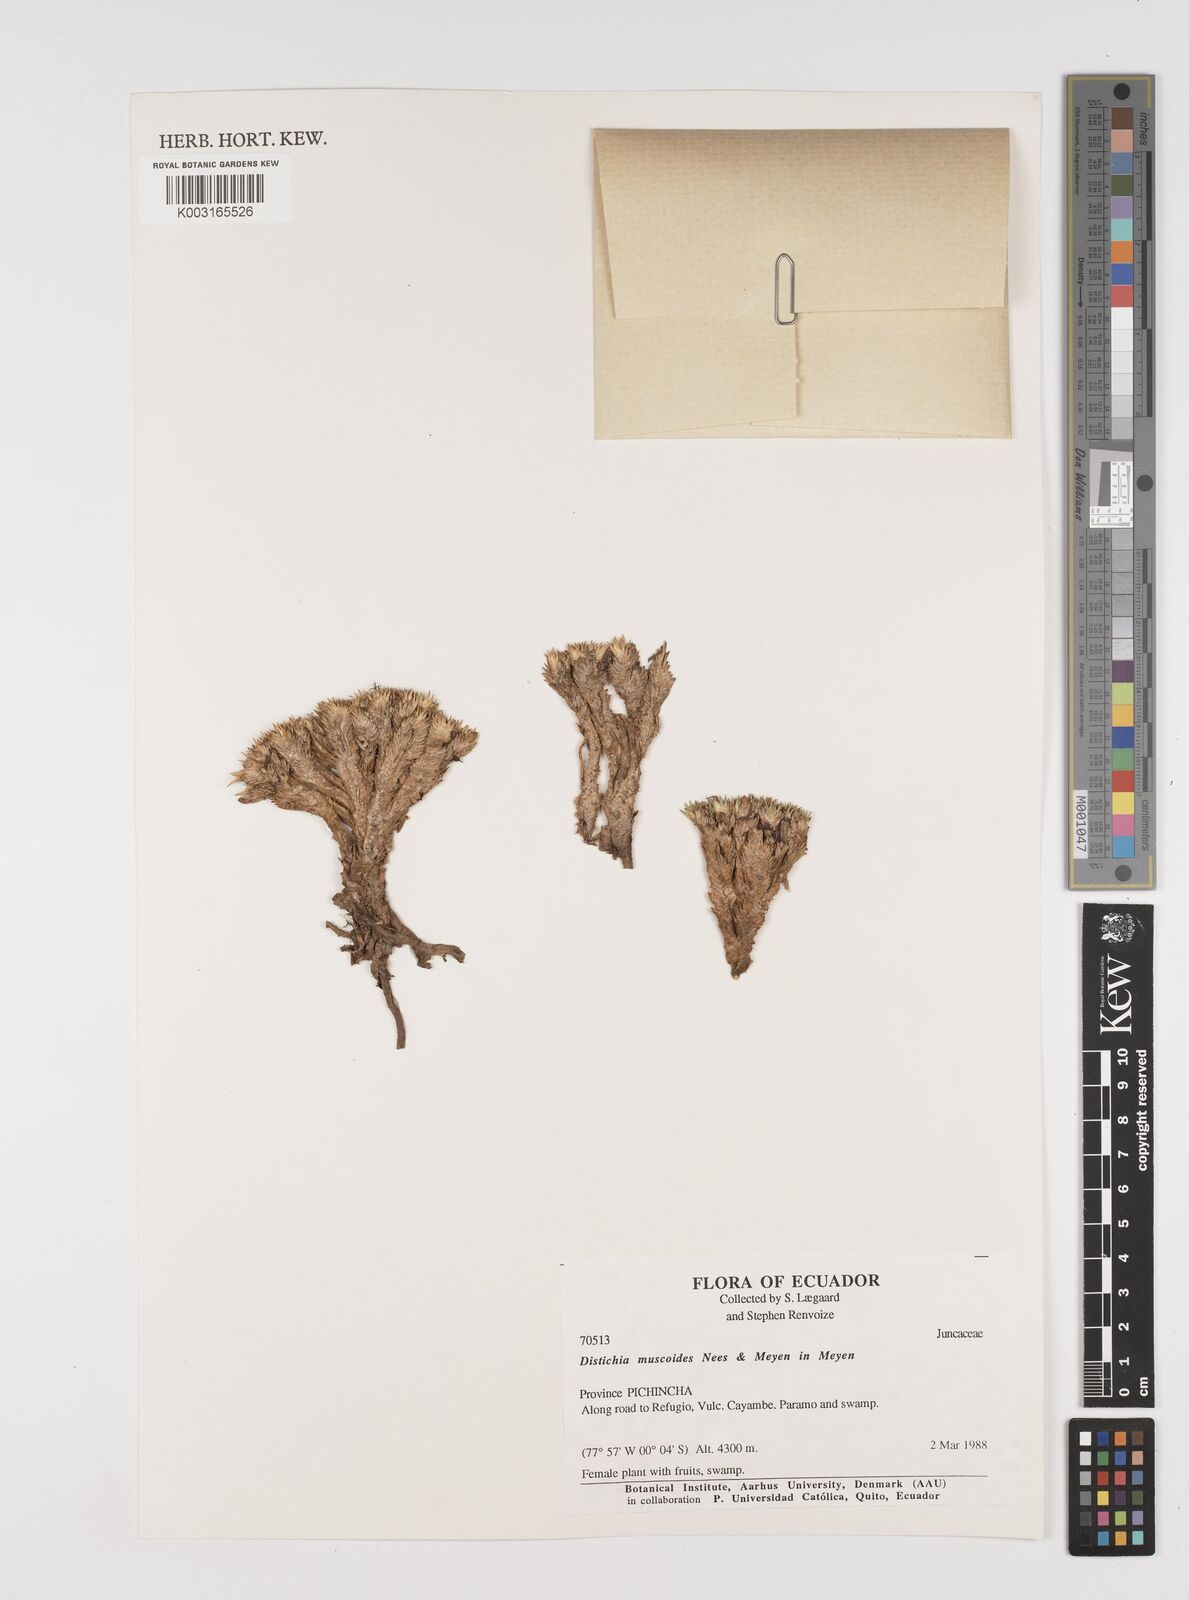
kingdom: Plantae
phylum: Tracheophyta
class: Liliopsida
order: Poales
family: Juncaceae
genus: Distichia
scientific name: Distichia muscoides
